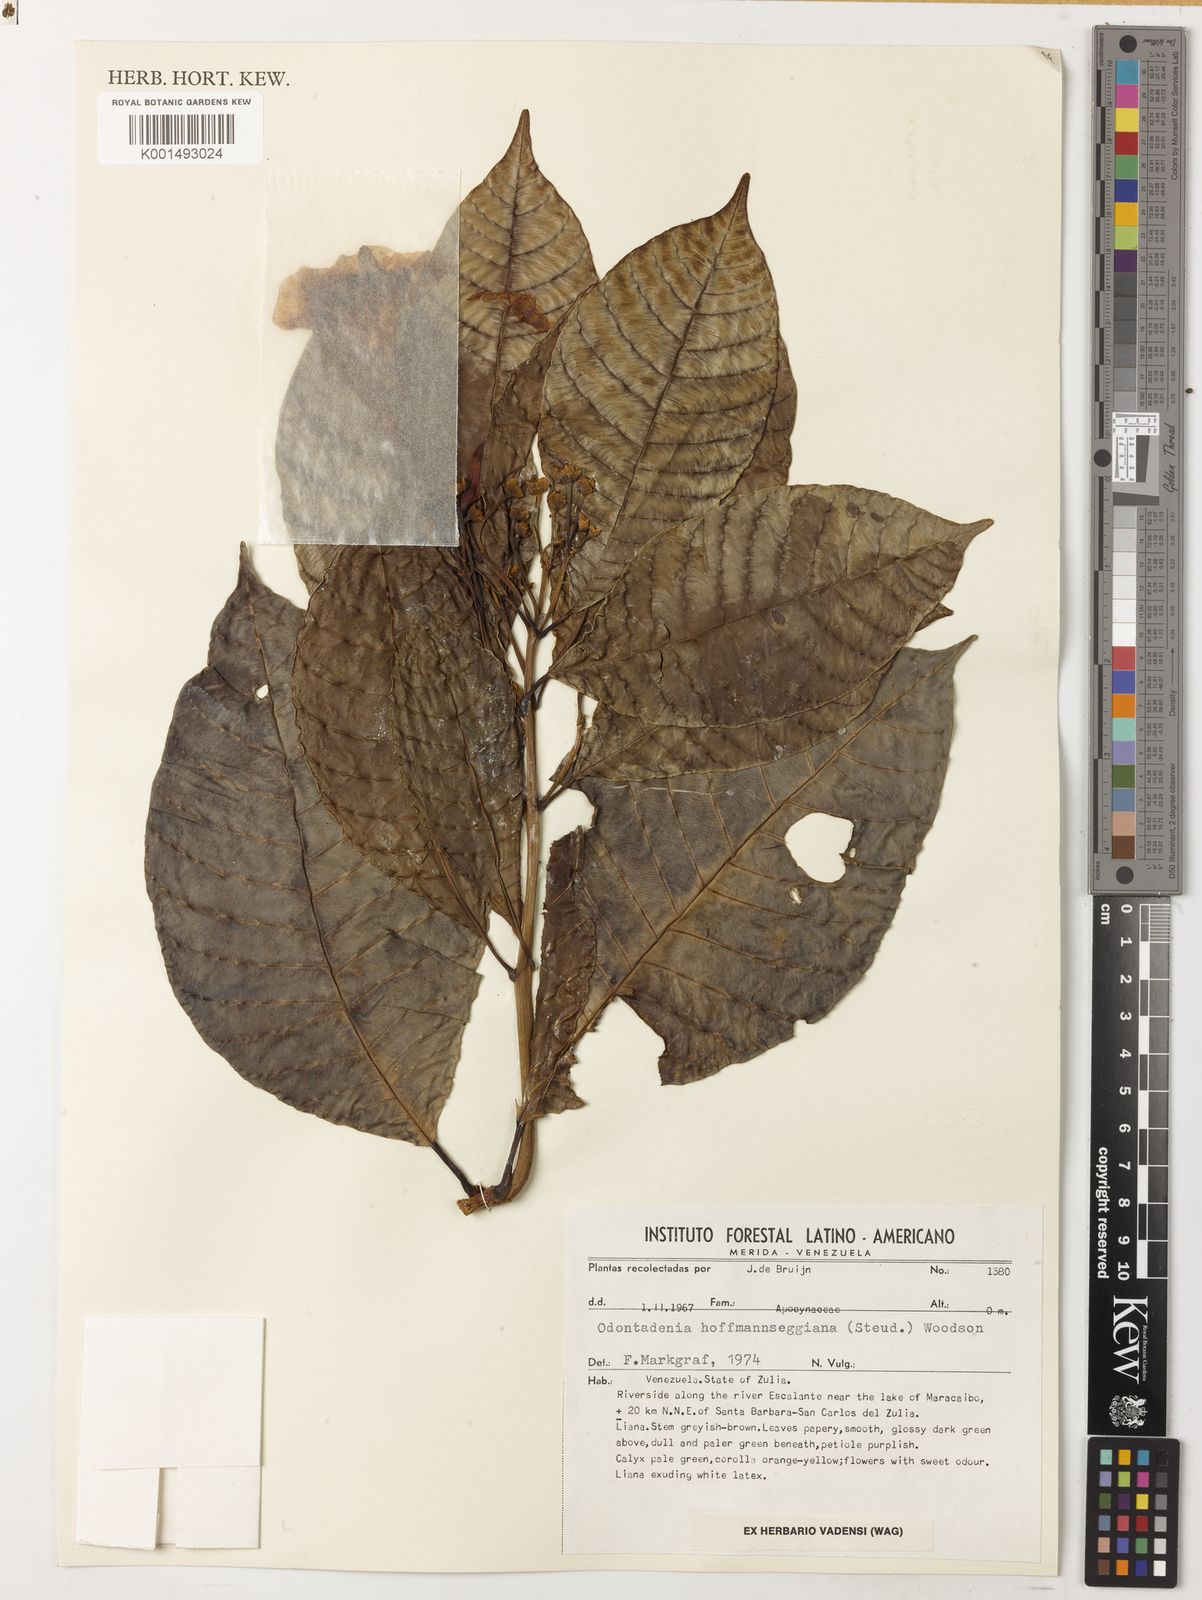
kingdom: Plantae
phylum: Tracheophyta
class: Magnoliopsida
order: Gentianales
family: Apocynaceae
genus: Odontadenia
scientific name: Odontadenia semidigyna
